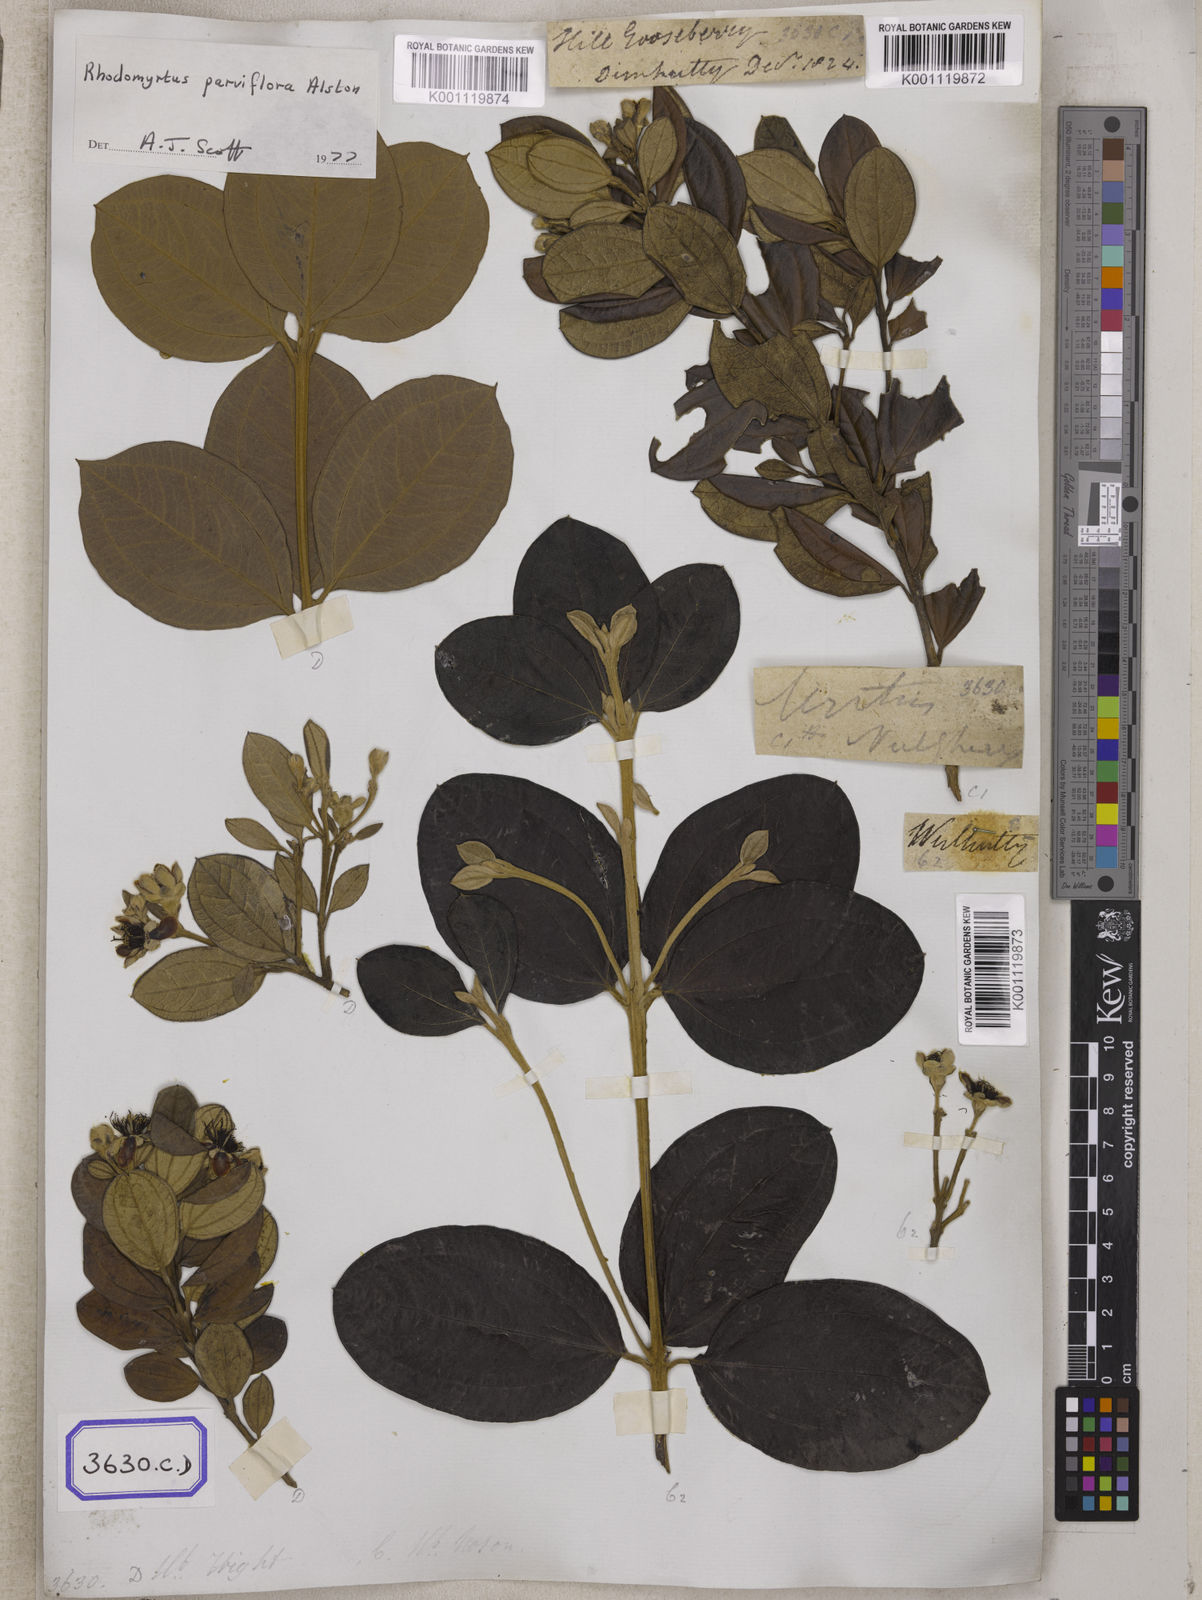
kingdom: Plantae
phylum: Tracheophyta
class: Magnoliopsida
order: Myrtales
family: Myrtaceae
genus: Rhodomyrtus
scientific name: Rhodomyrtus tomentosa
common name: Rose myrtle
